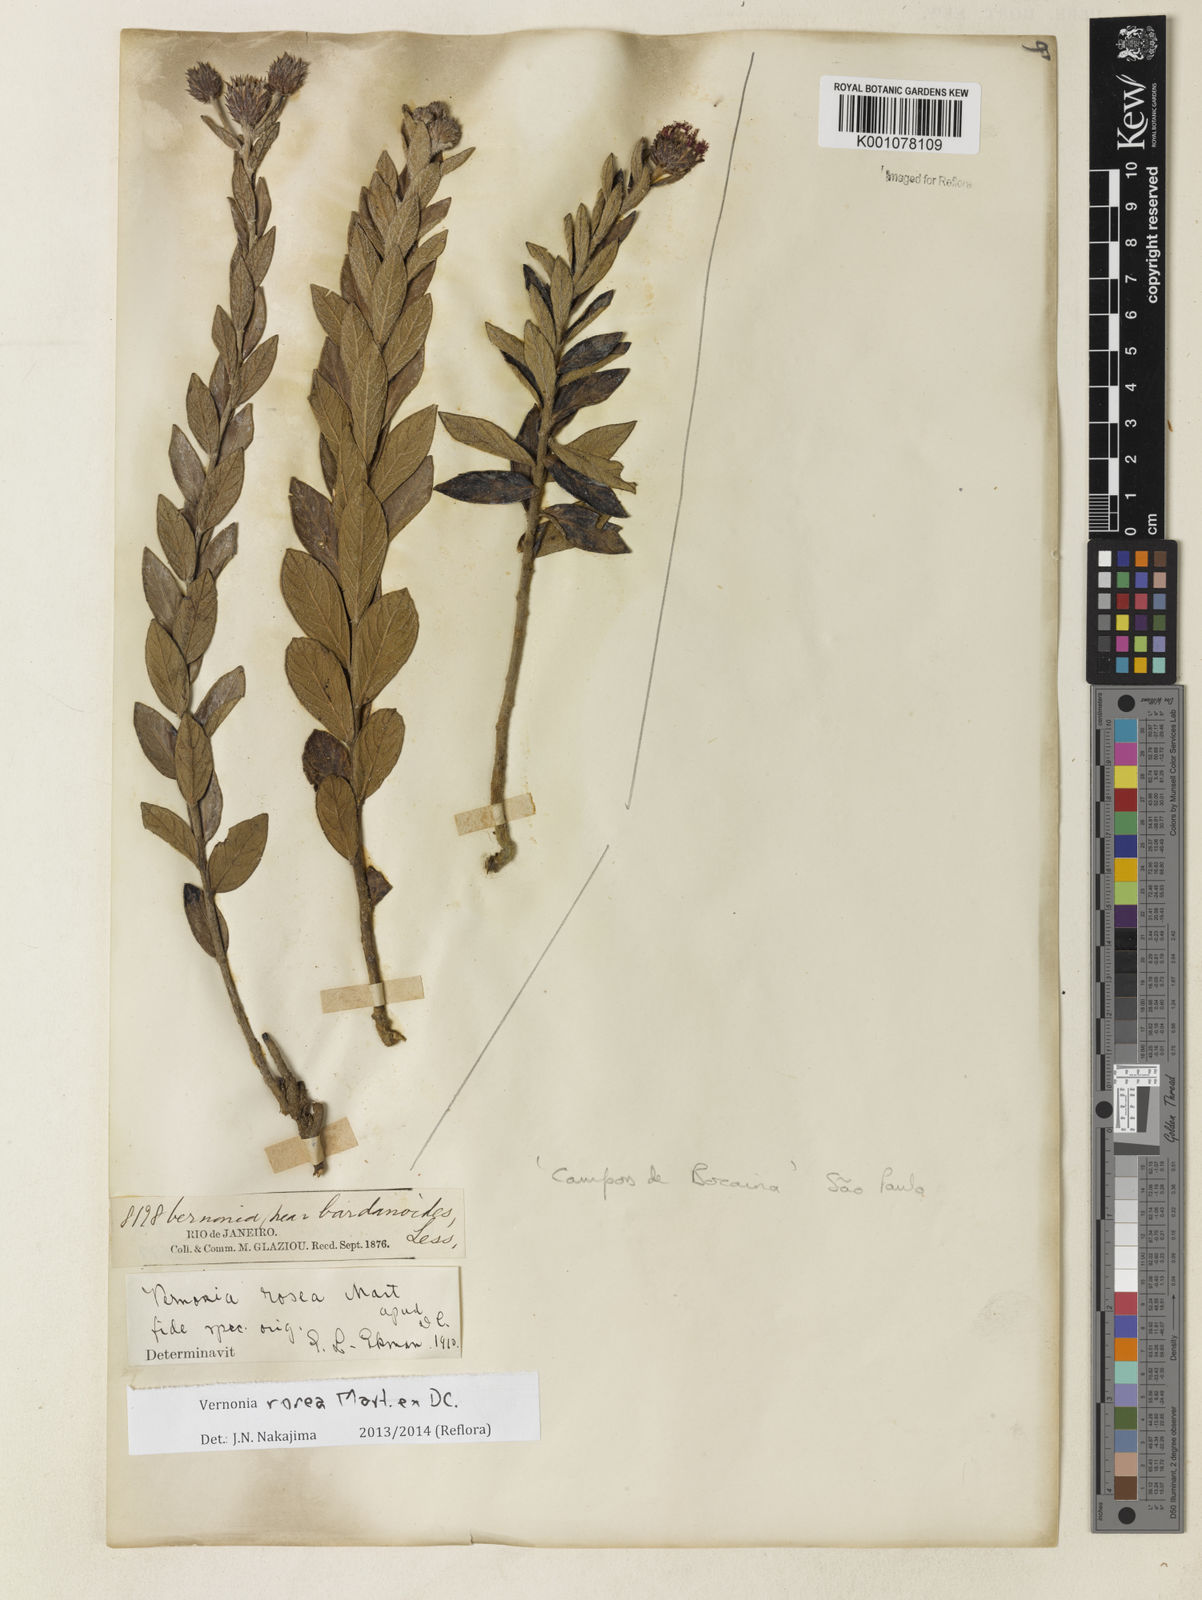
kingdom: Plantae
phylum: Tracheophyta
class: Magnoliopsida
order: Asterales
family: Asteraceae
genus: Lessingianthus
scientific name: Lessingianthus pycnostachyus
